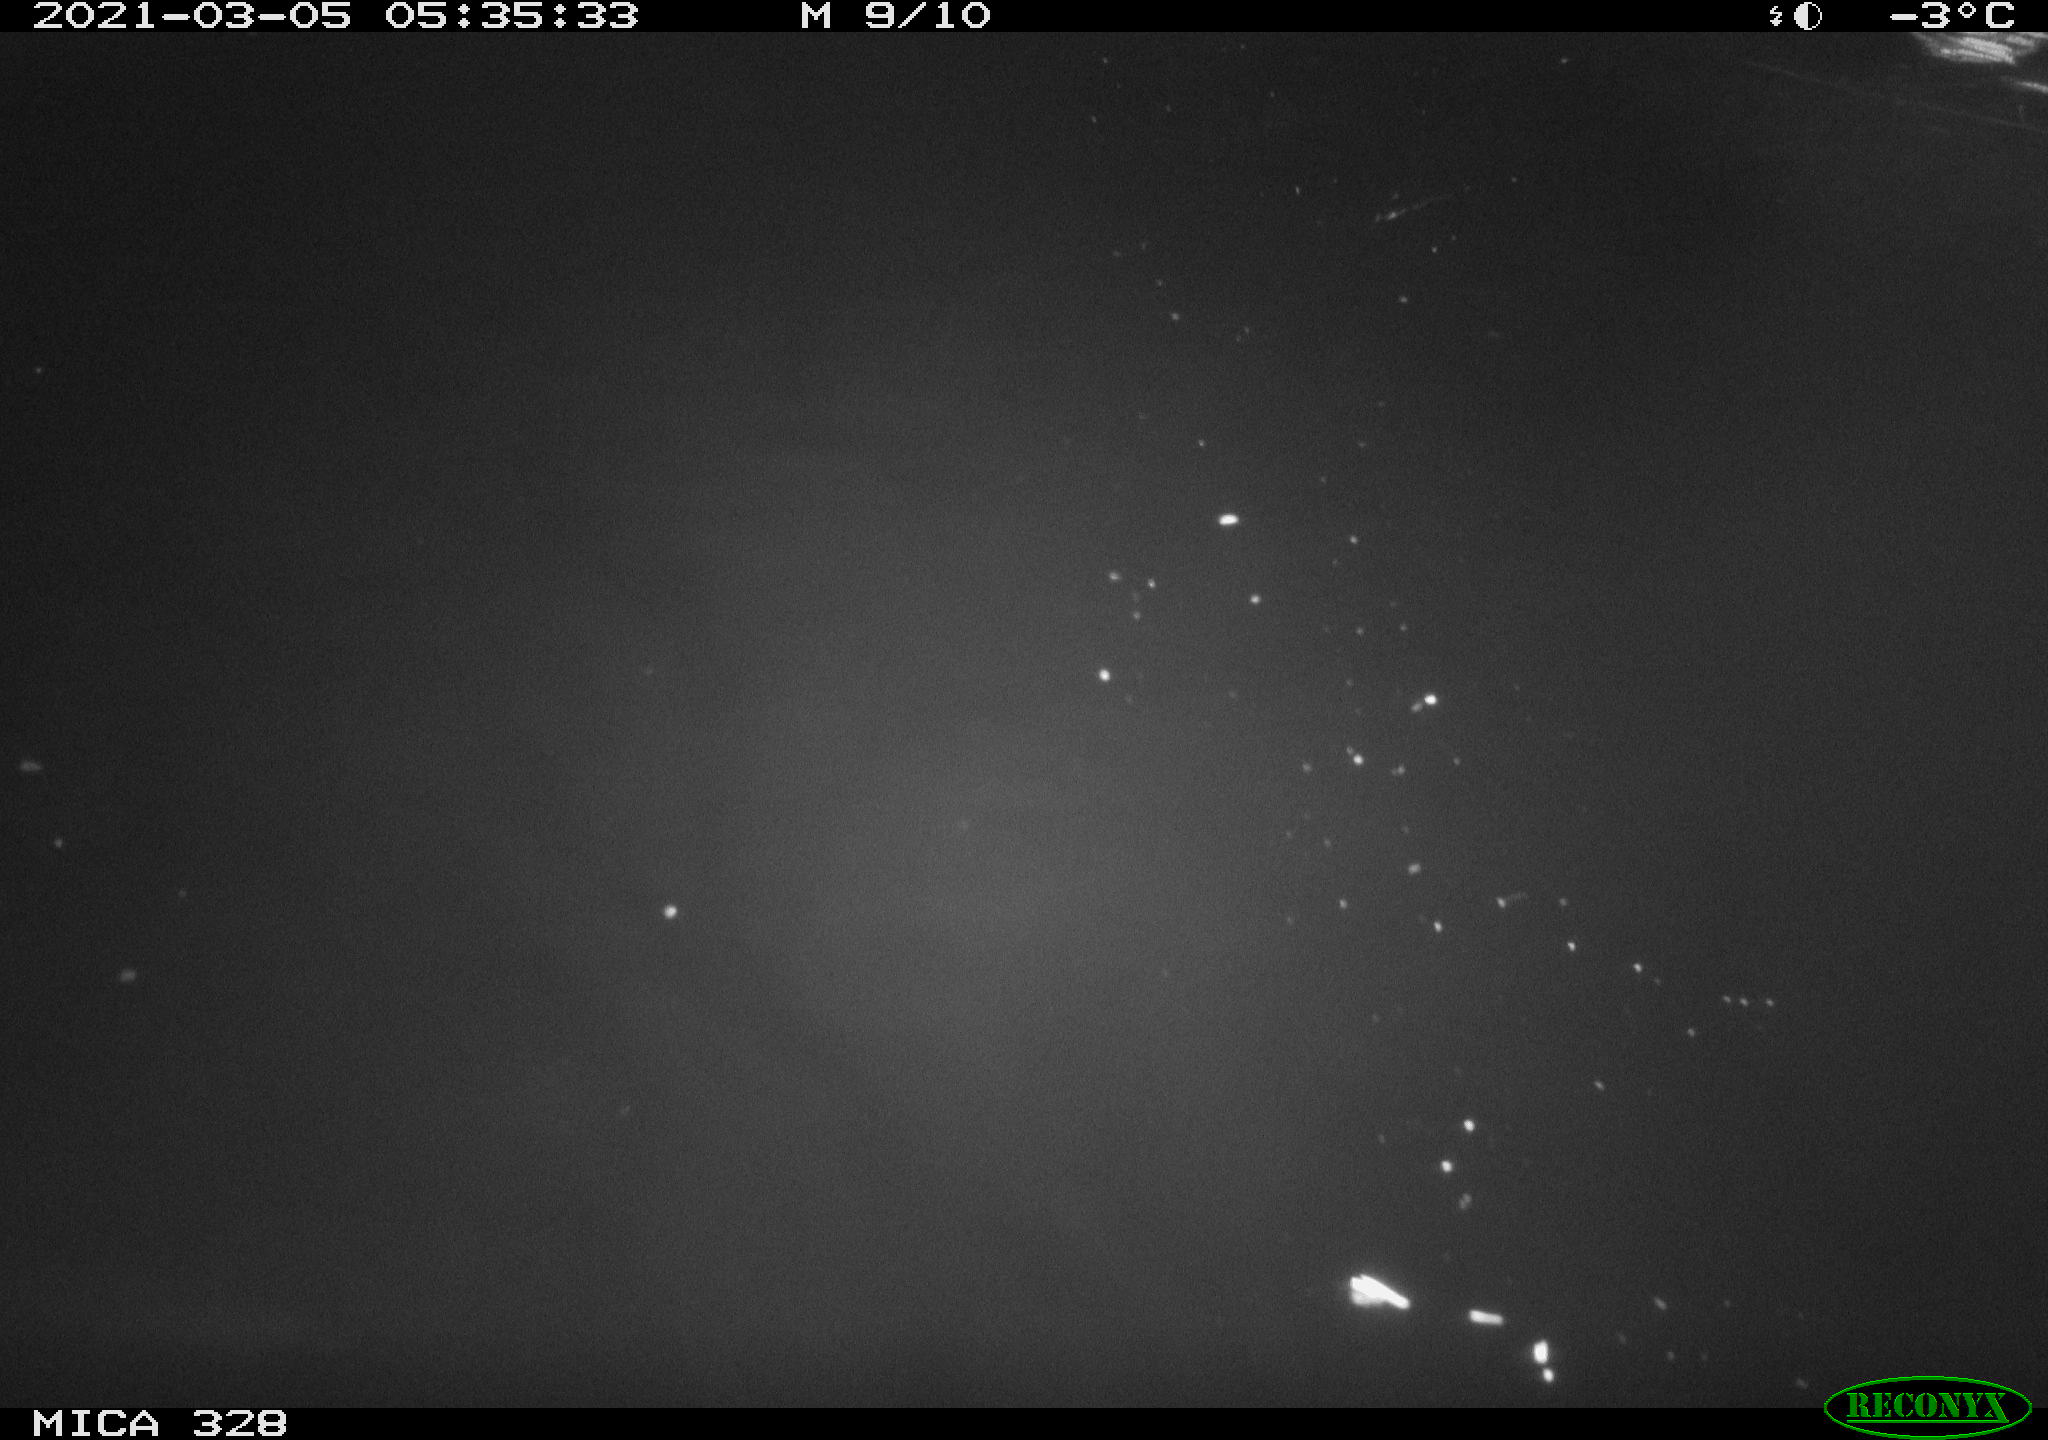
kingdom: Animalia
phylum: Chordata
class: Aves
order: Anseriformes
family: Anatidae
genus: Anas
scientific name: Anas platyrhynchos
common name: Mallard
